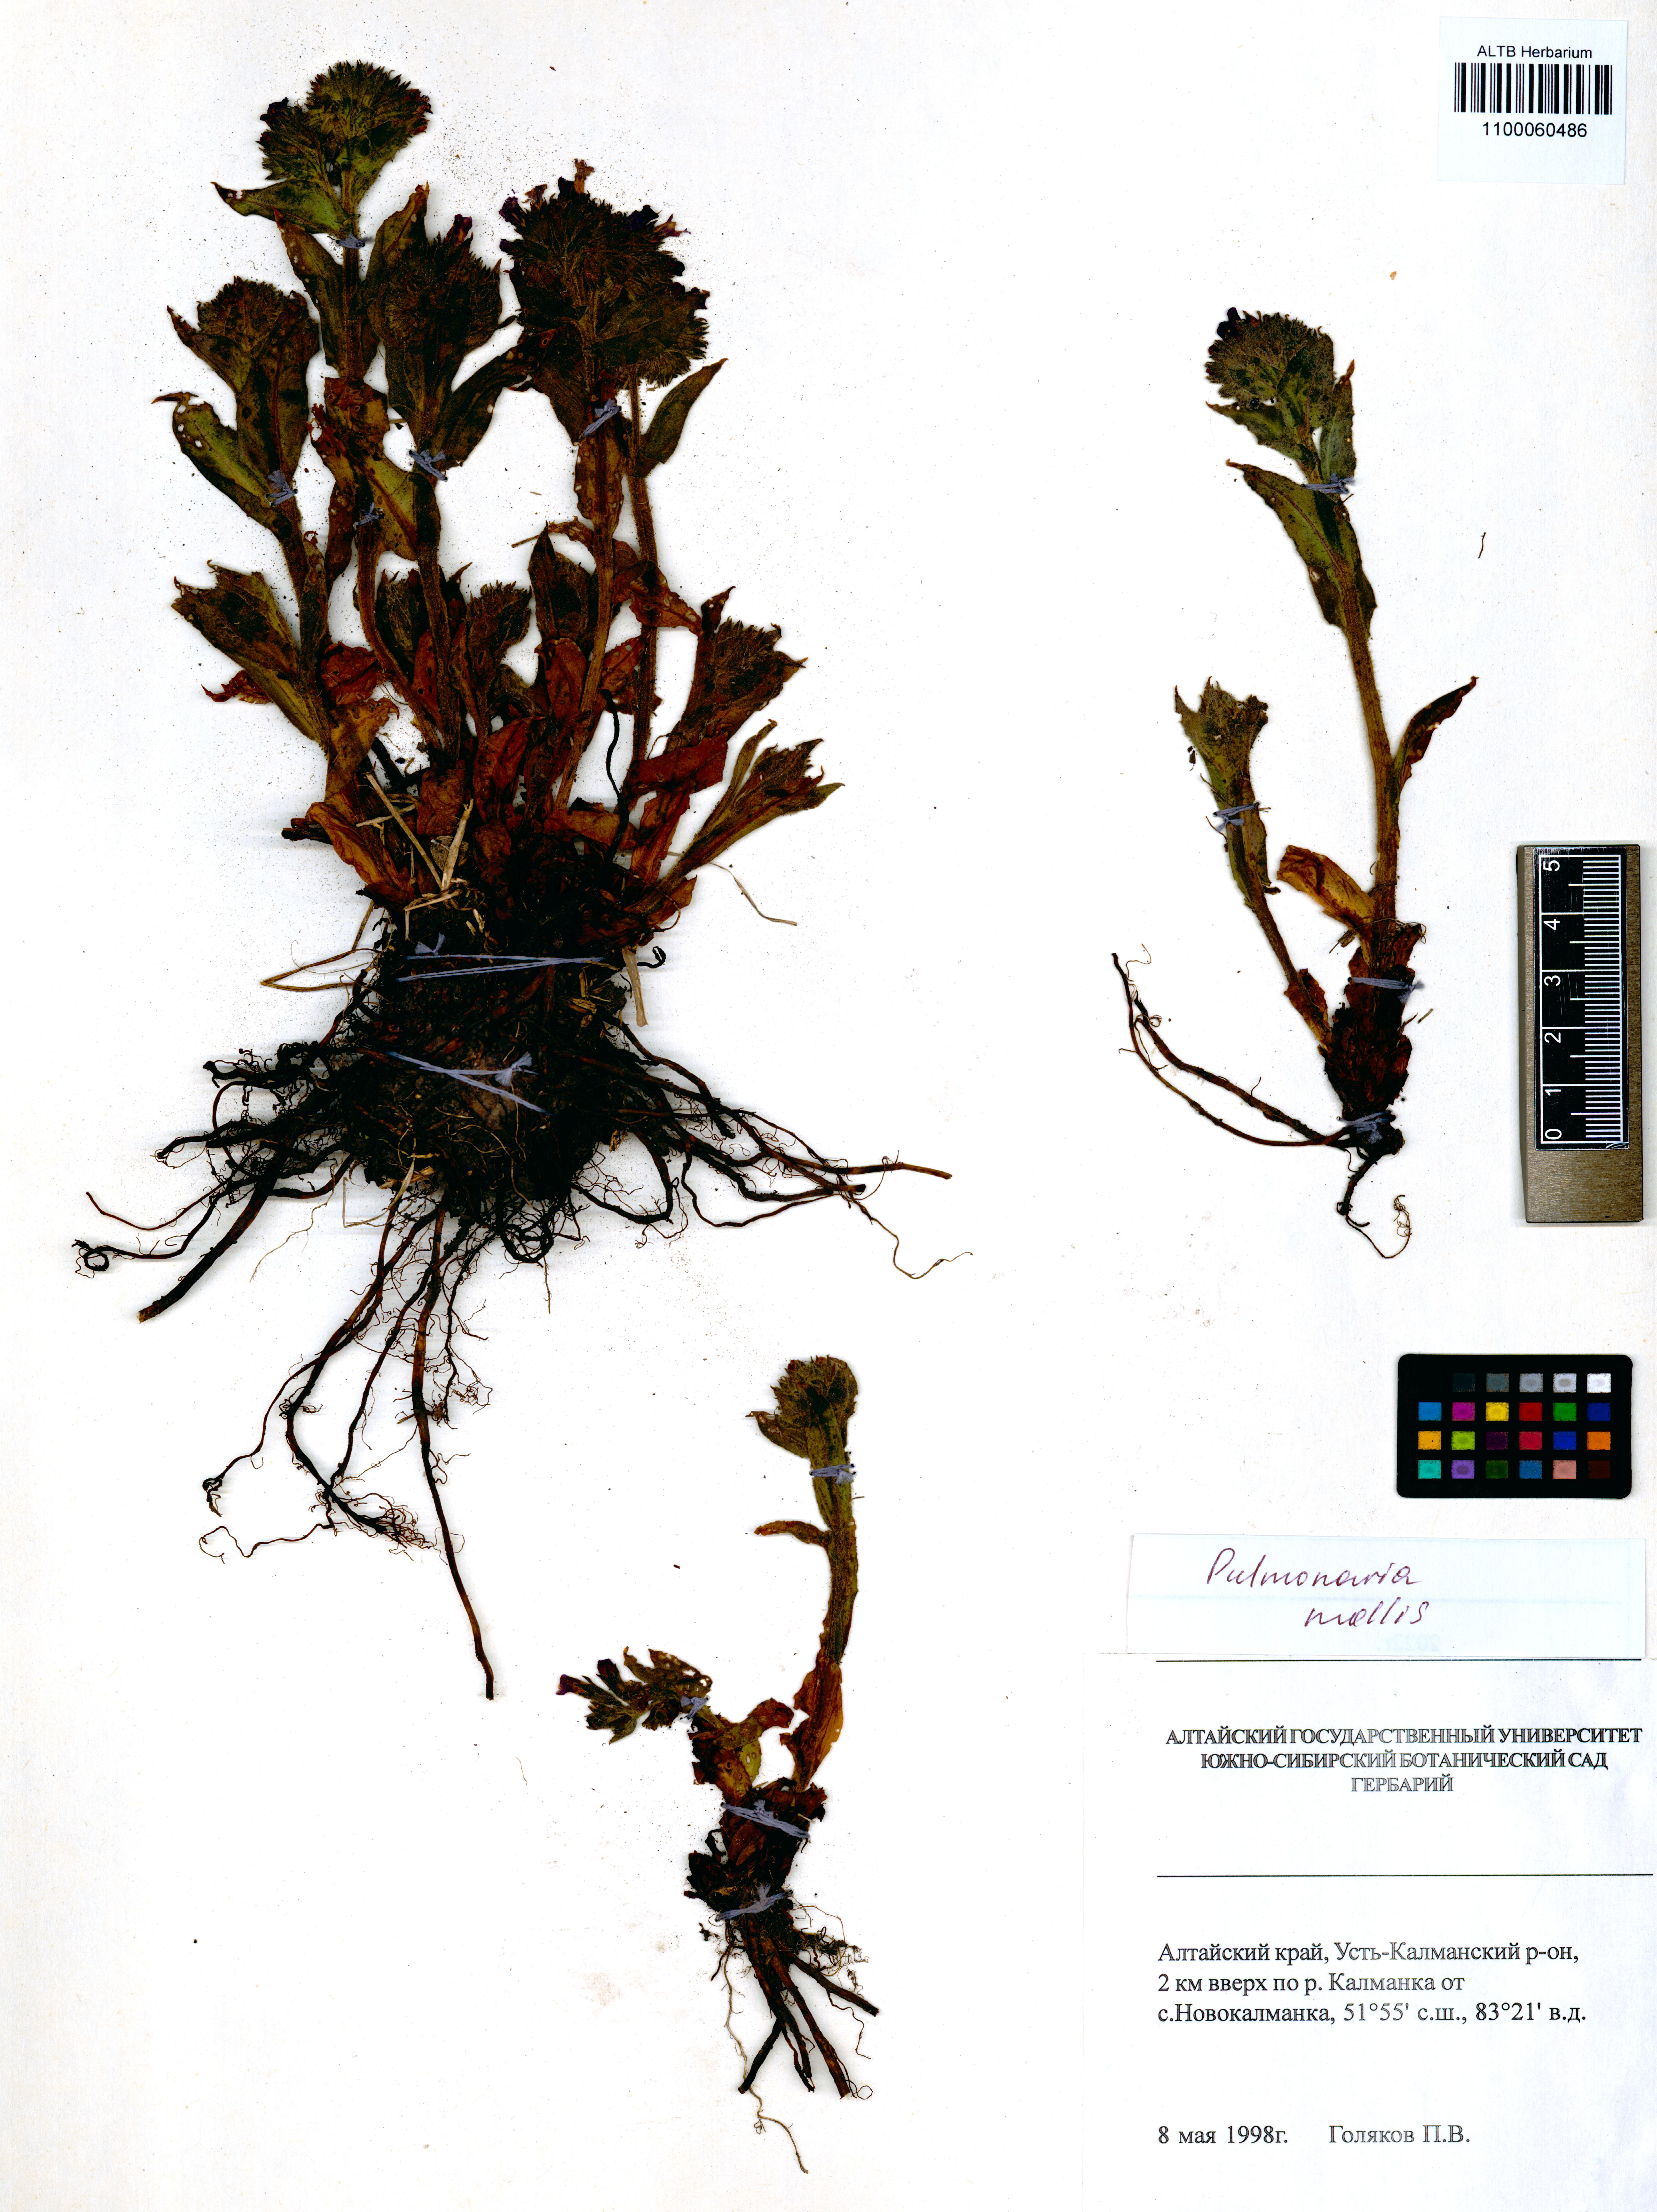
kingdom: Plantae
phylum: Tracheophyta
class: Magnoliopsida
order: Boraginales
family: Boraginaceae
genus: Pulmonaria
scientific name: Pulmonaria mollis
